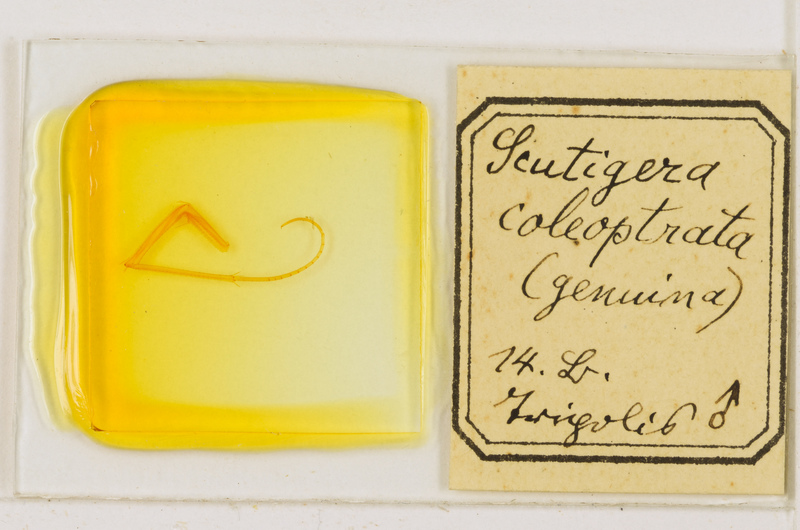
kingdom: Animalia
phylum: Arthropoda
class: Chilopoda
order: Scutigeromorpha
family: Scutigeridae
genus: Scutigera
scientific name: Scutigera coleoptrata
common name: House centipede
